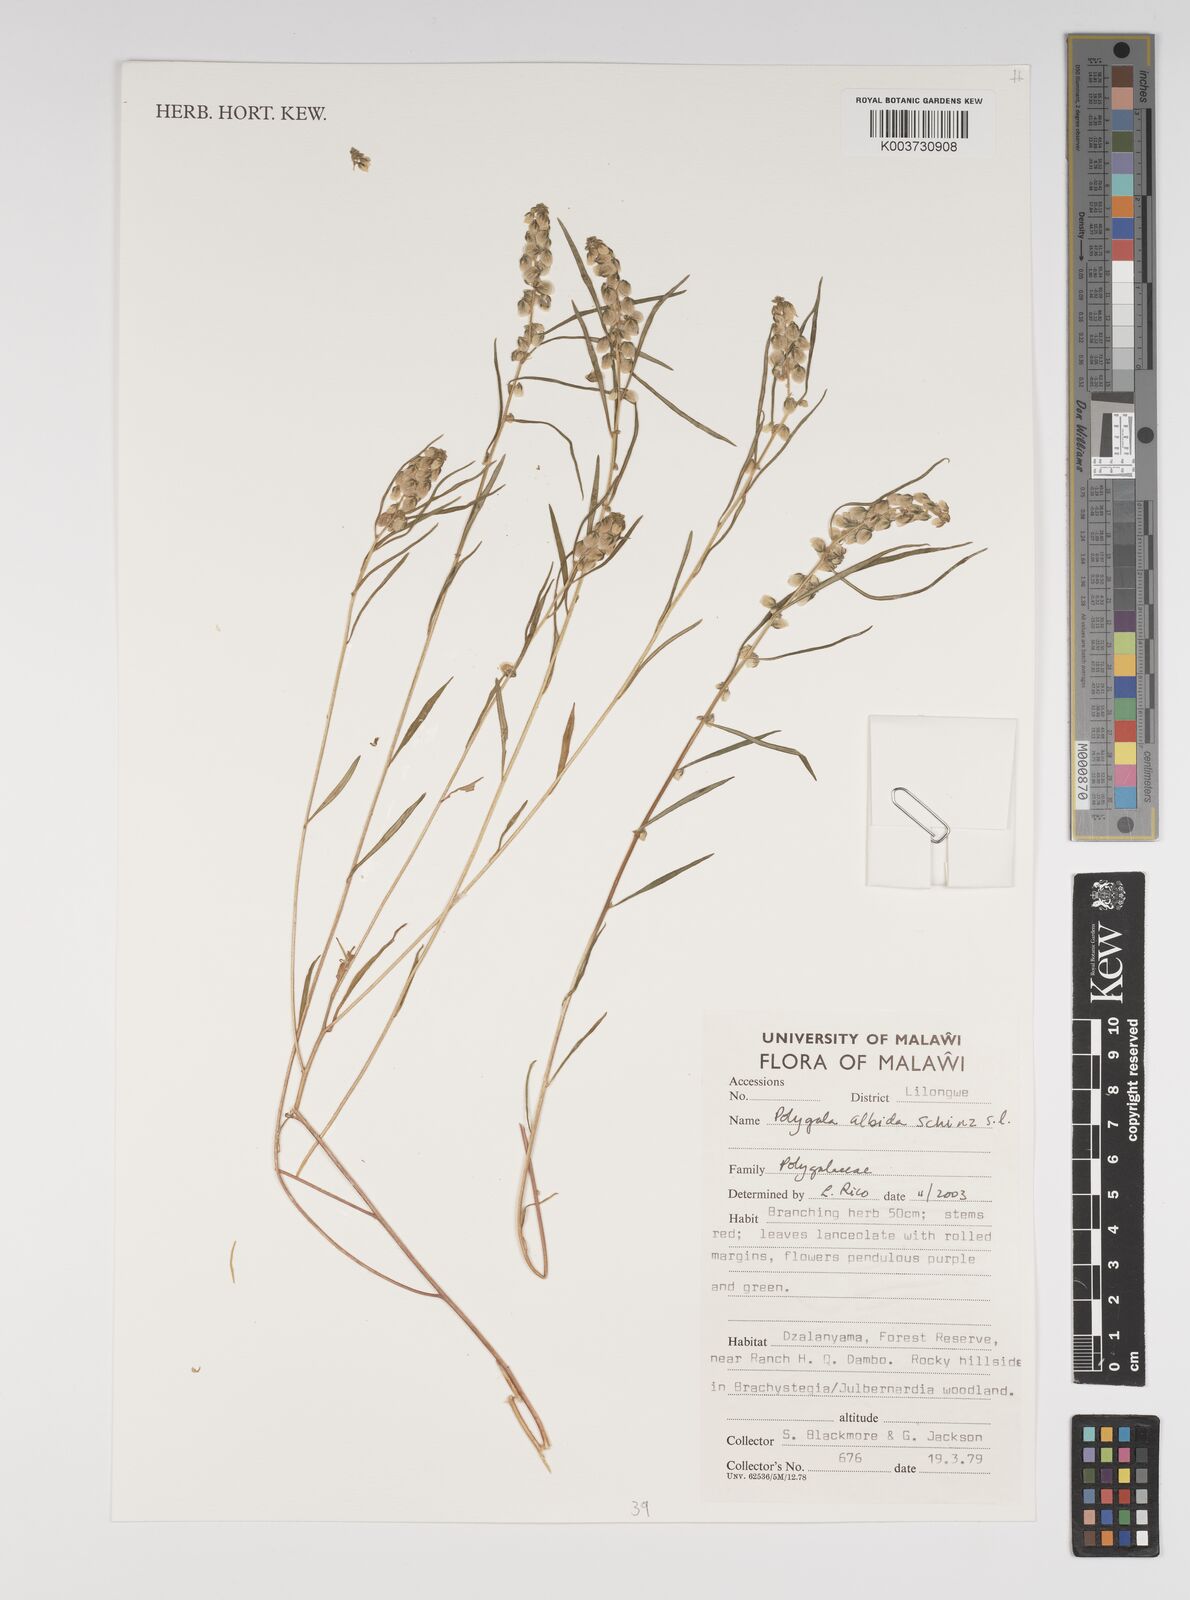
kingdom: Plantae
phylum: Tracheophyta
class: Magnoliopsida
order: Fabales
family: Polygalaceae
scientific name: Polygalaceae
